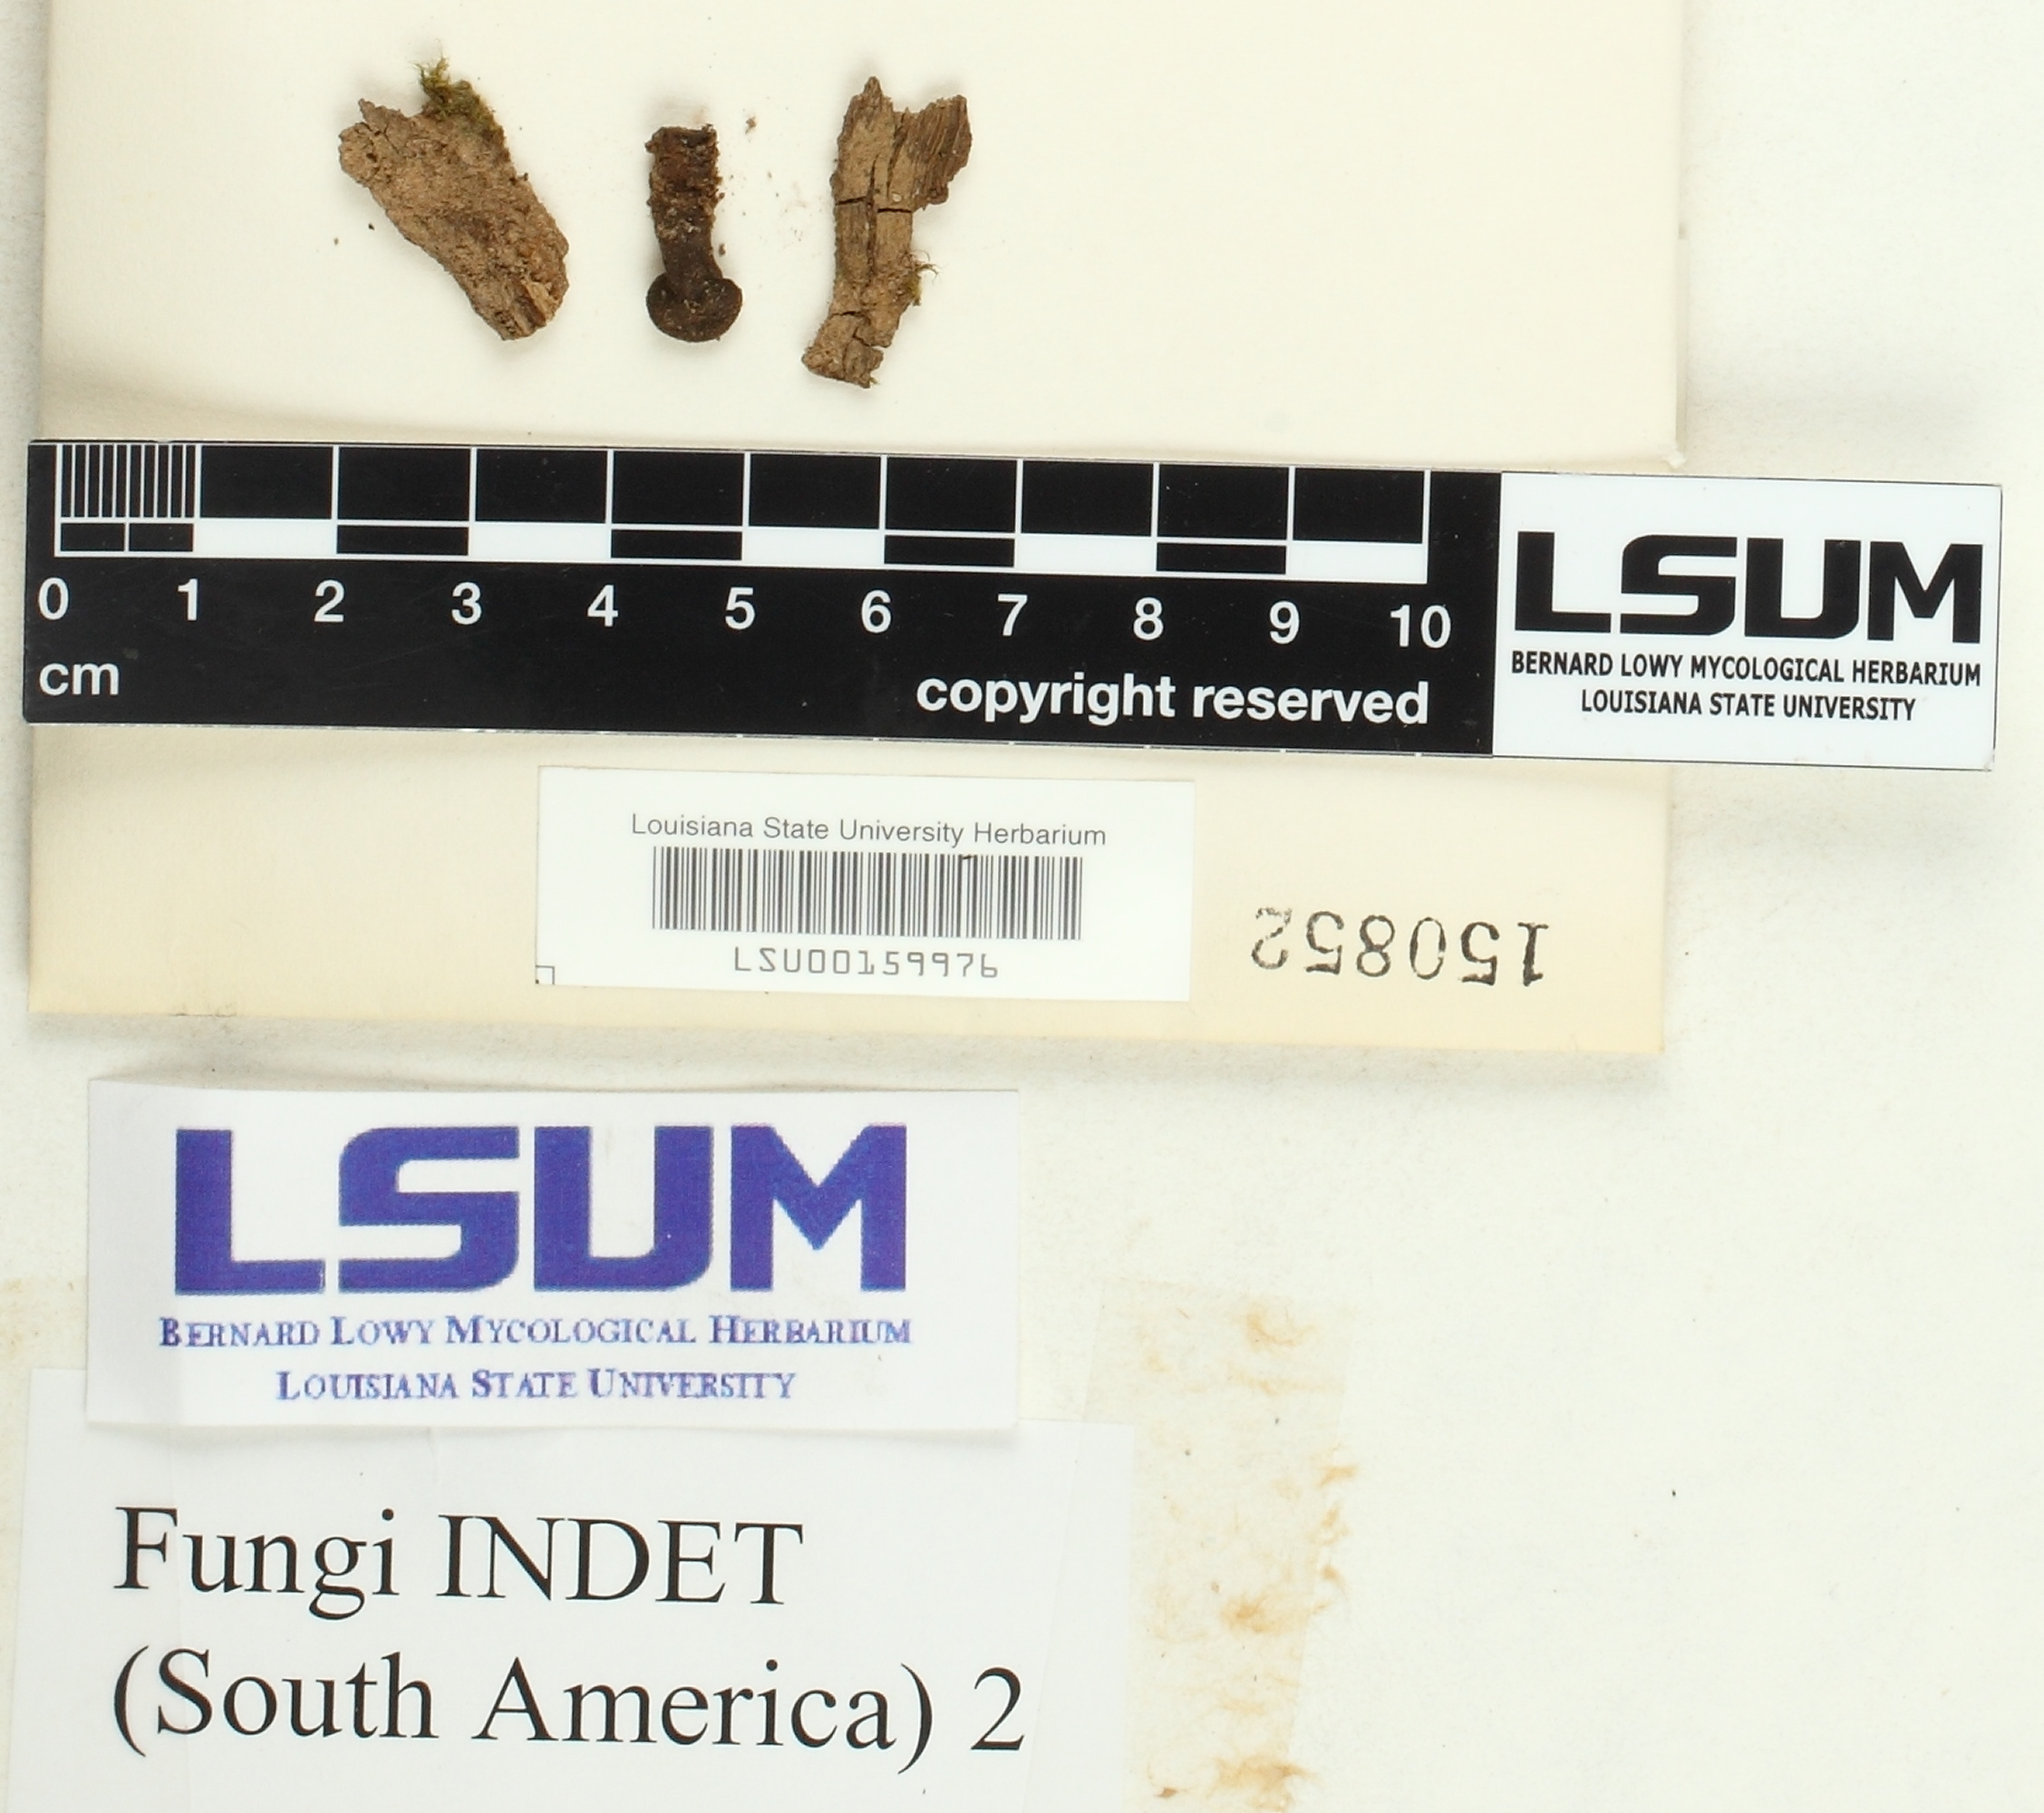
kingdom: Fungi
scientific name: Fungi
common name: Fungi
